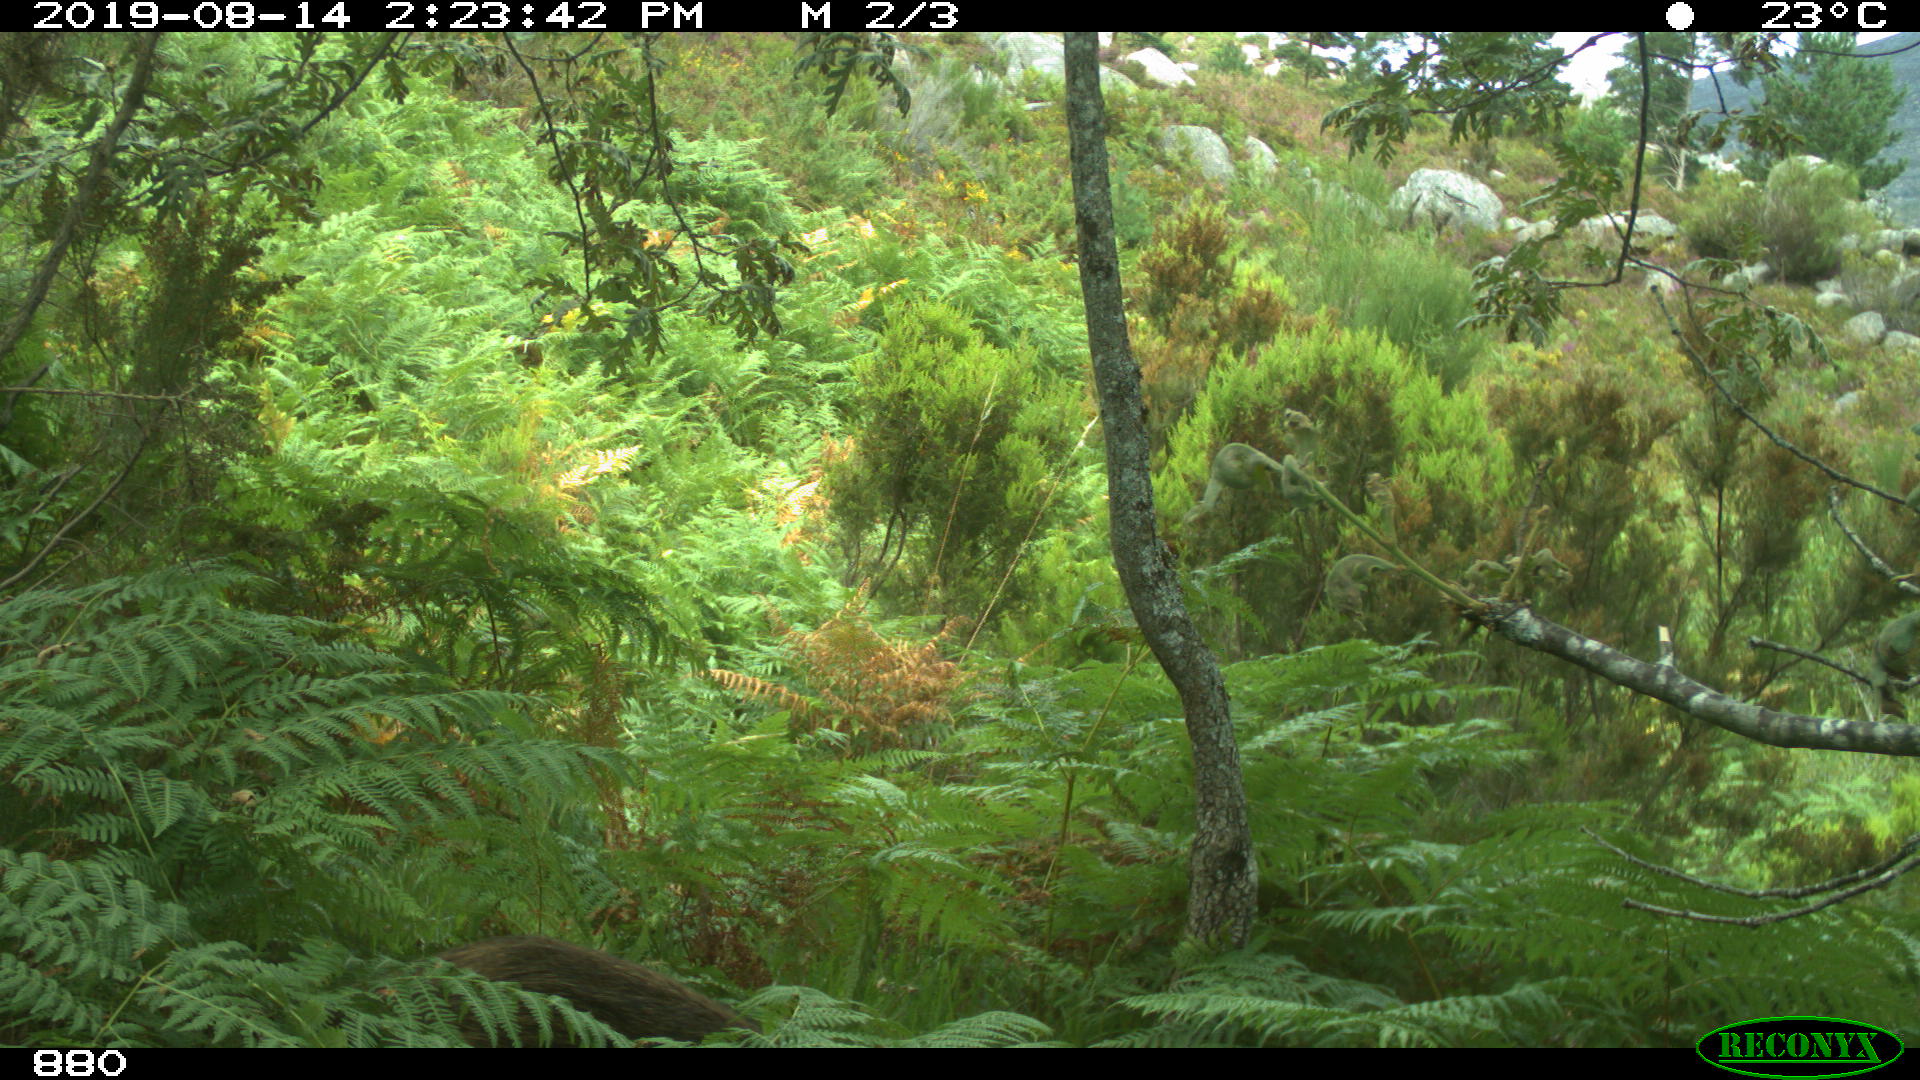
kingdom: Animalia
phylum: Chordata
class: Mammalia
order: Artiodactyla
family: Suidae
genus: Sus
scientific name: Sus scrofa
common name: Wild boar
